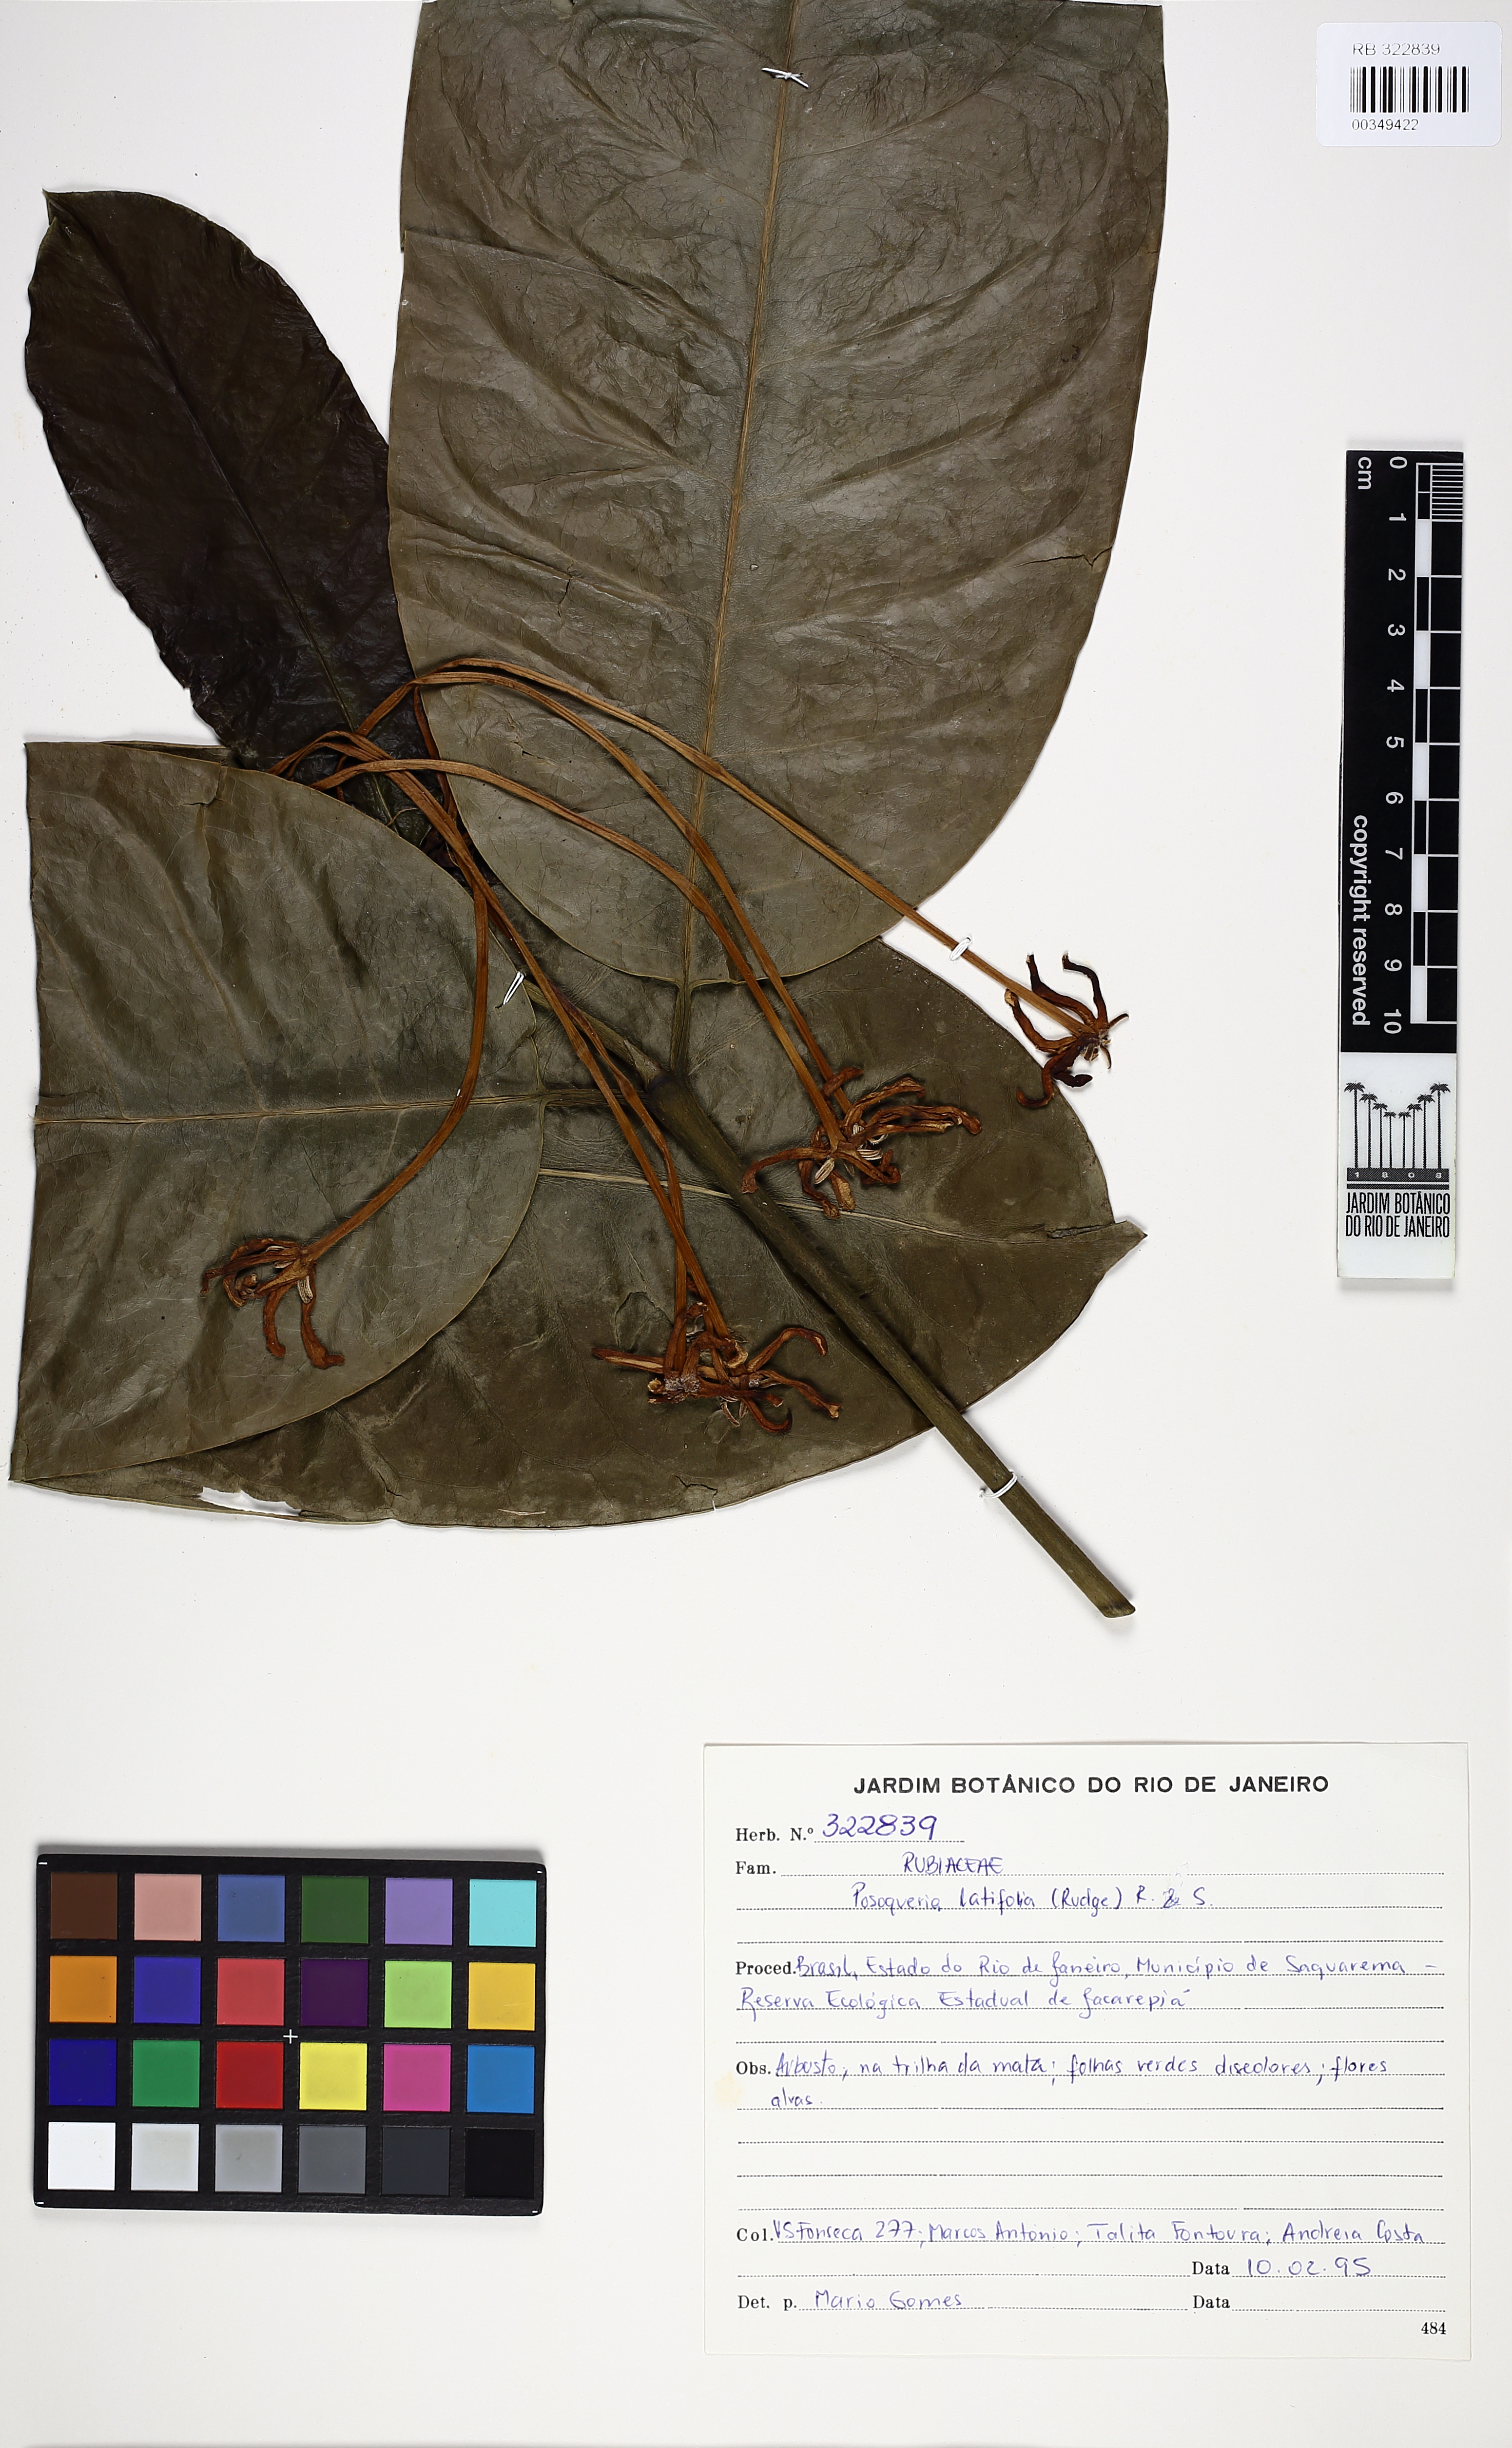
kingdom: Plantae
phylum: Tracheophyta
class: Magnoliopsida
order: Gentianales
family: Rubiaceae
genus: Posoqueria
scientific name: Posoqueria longiflora
